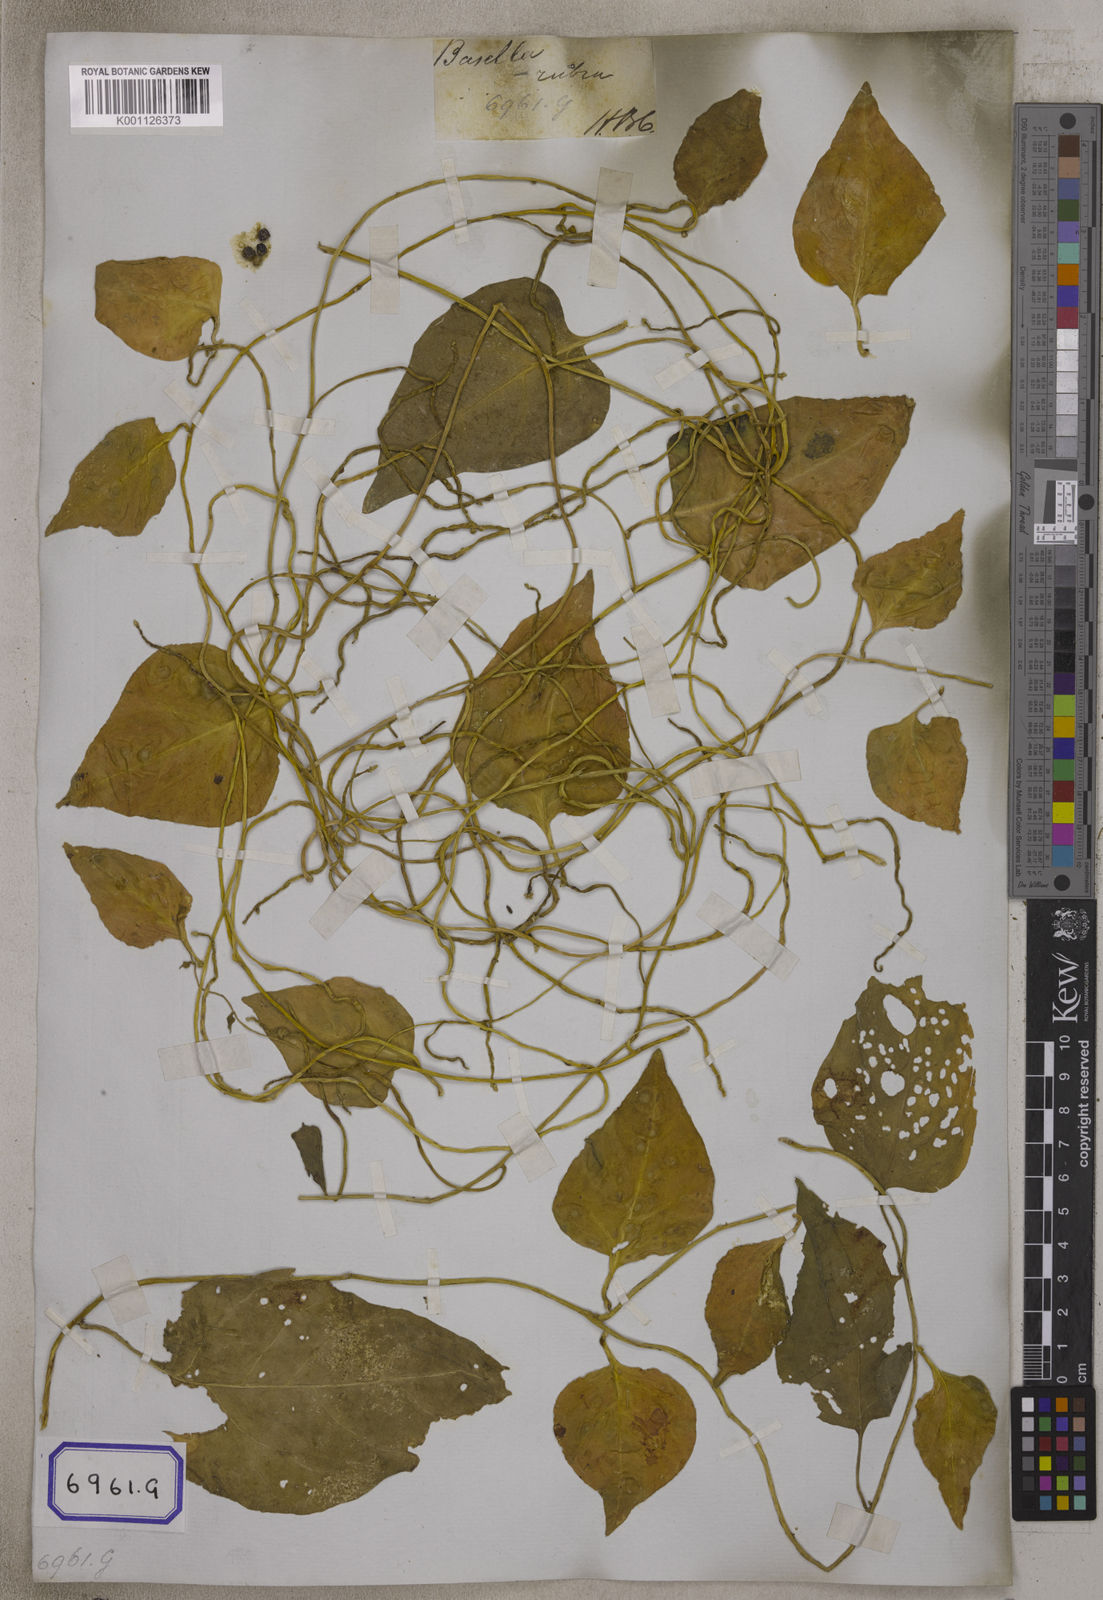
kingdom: Plantae
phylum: Tracheophyta
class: Magnoliopsida
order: Caryophyllales
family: Basellaceae
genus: Basella
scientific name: Basella alba
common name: Indian spinach
